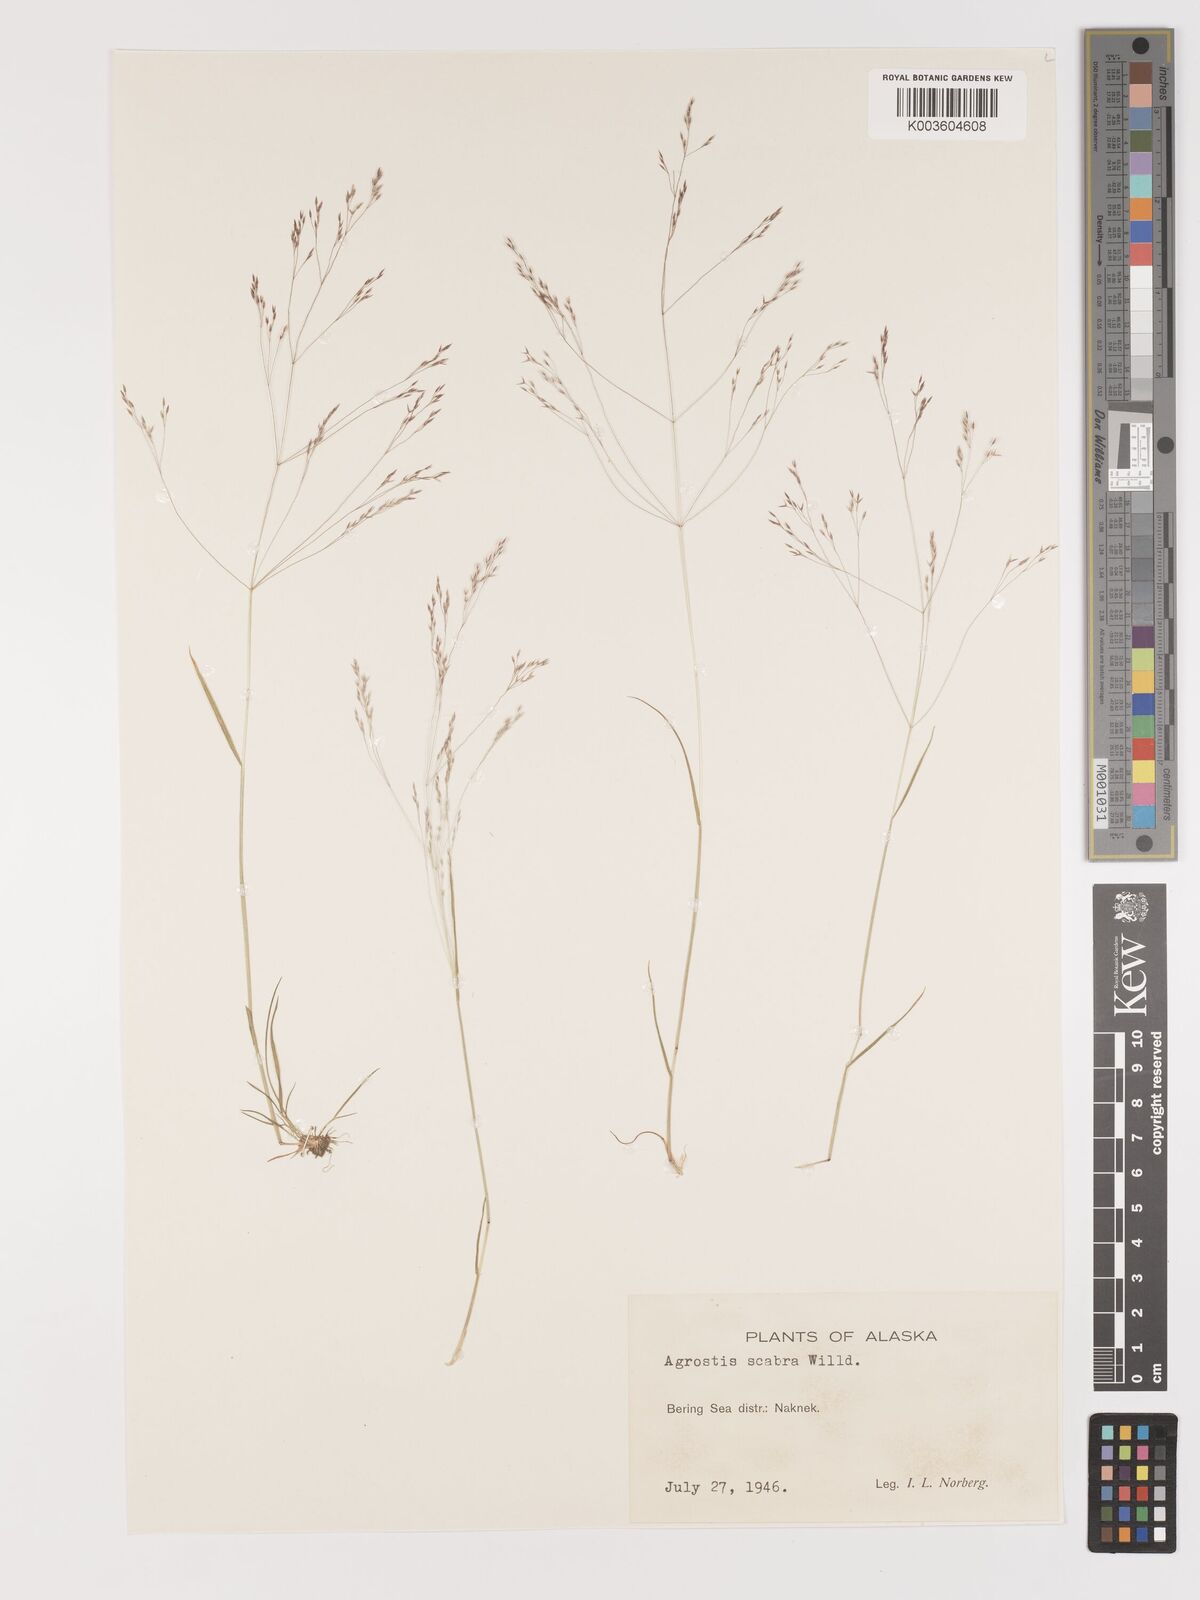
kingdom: Plantae
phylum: Tracheophyta
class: Liliopsida
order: Poales
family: Poaceae
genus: Agrostis
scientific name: Agrostis
